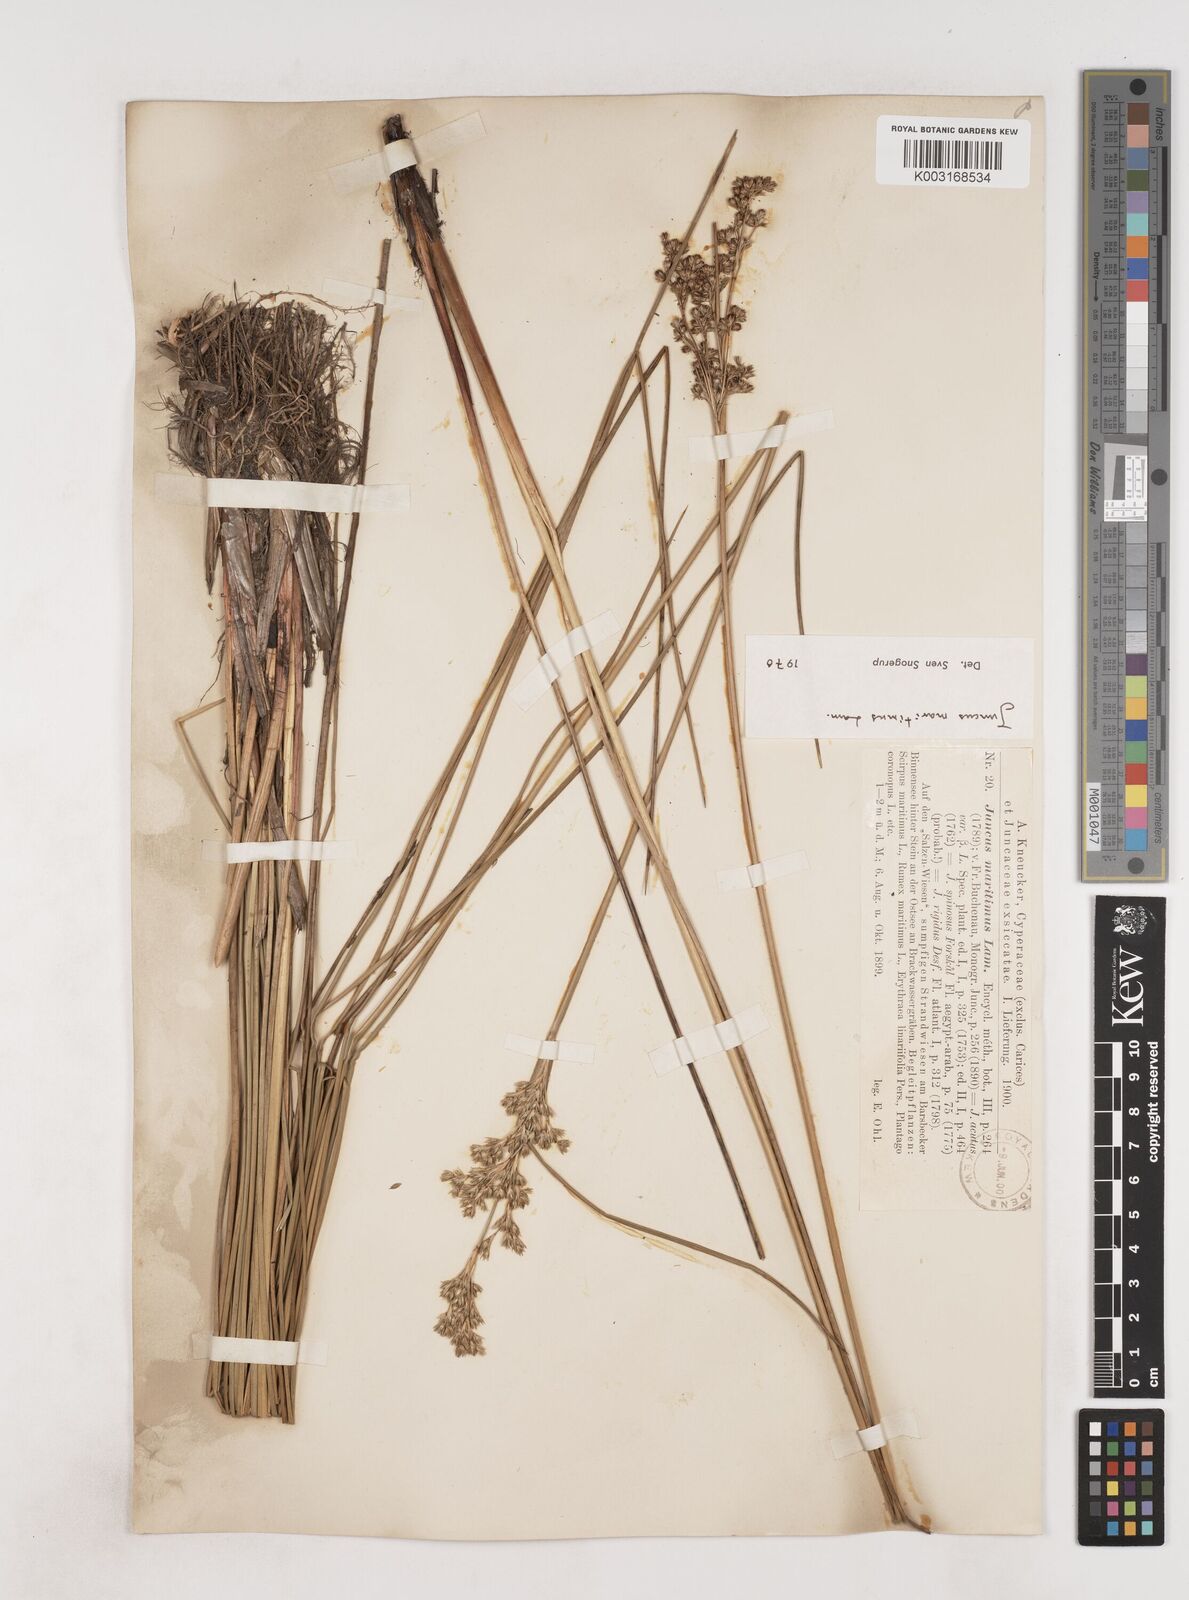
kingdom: Plantae
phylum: Tracheophyta
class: Liliopsida
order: Poales
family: Juncaceae
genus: Juncus
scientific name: Juncus maritimus
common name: Sea rush
